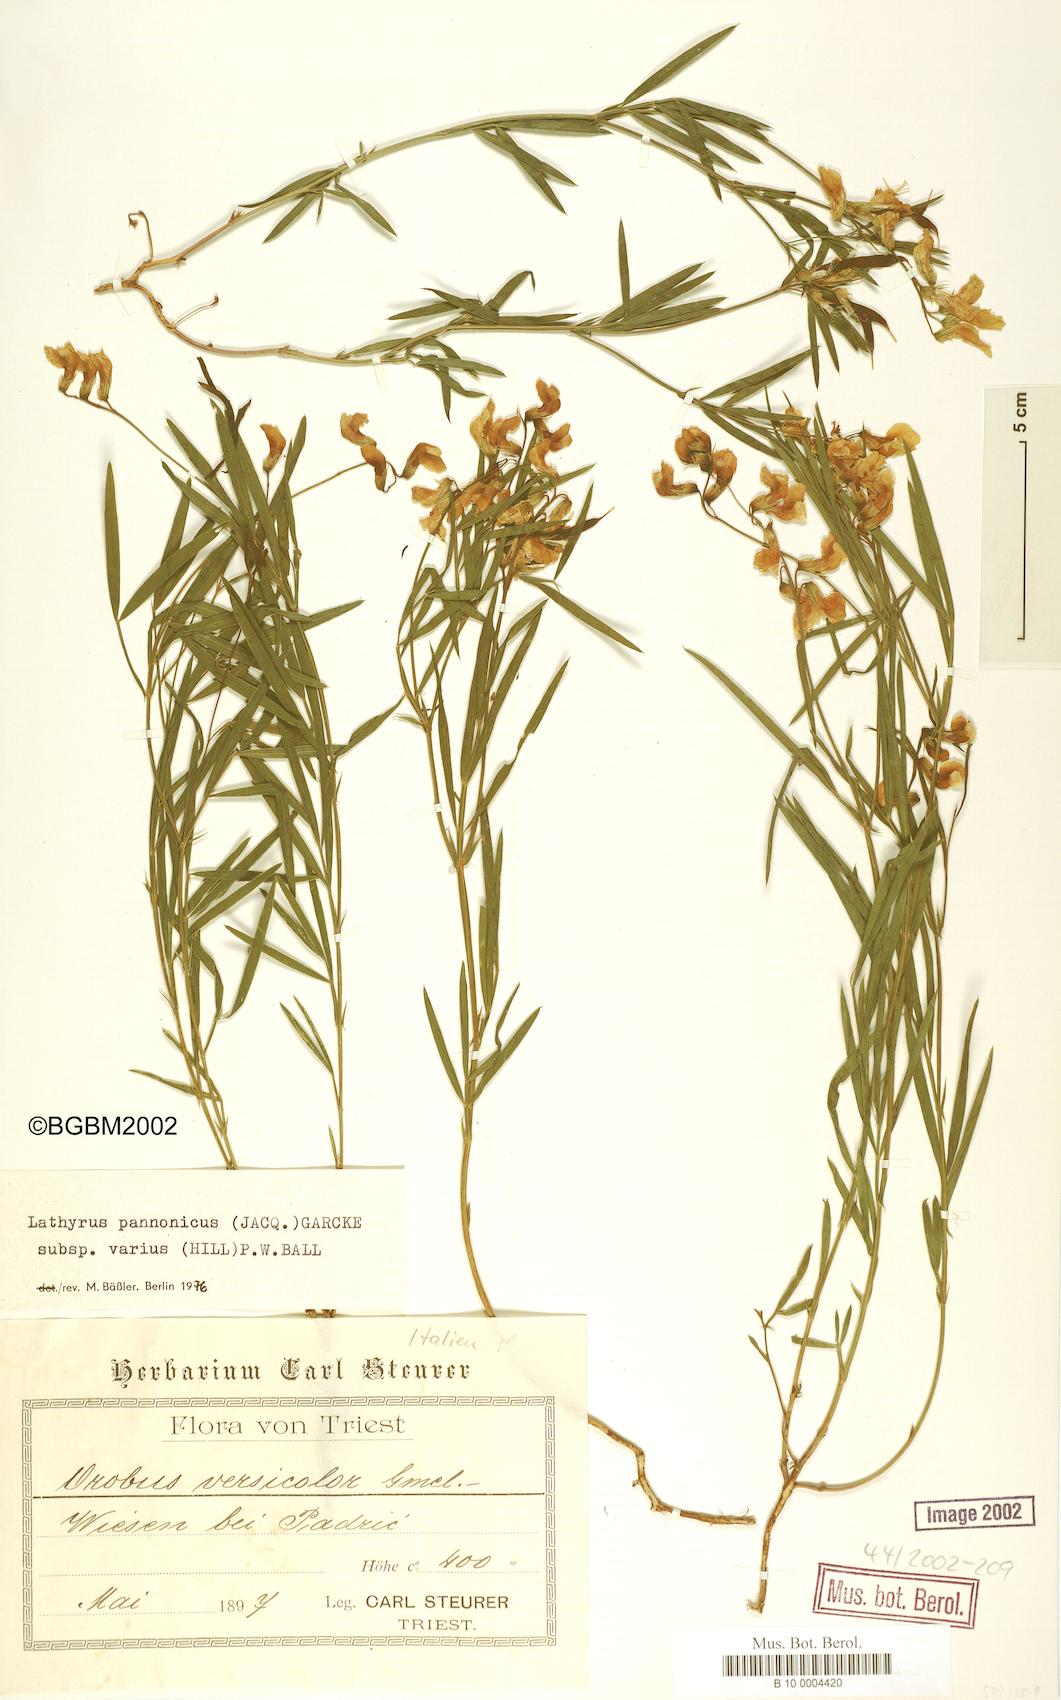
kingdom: Plantae
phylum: Tracheophyta
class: Magnoliopsida
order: Fabales
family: Fabaceae
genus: Lathyrus
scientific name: Lathyrus pannonicus
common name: Pea
